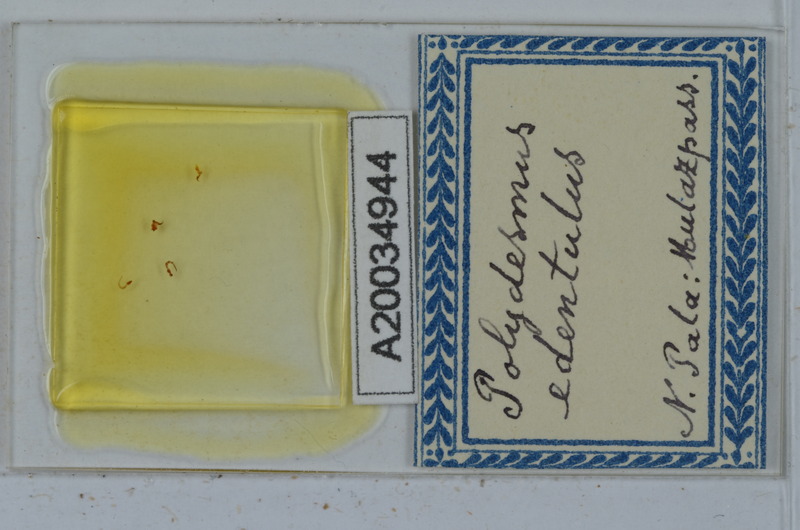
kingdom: Animalia
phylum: Arthropoda
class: Diplopoda
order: Polydesmida
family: Polydesmidae
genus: Polydesmus
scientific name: Polydesmus edentulus
